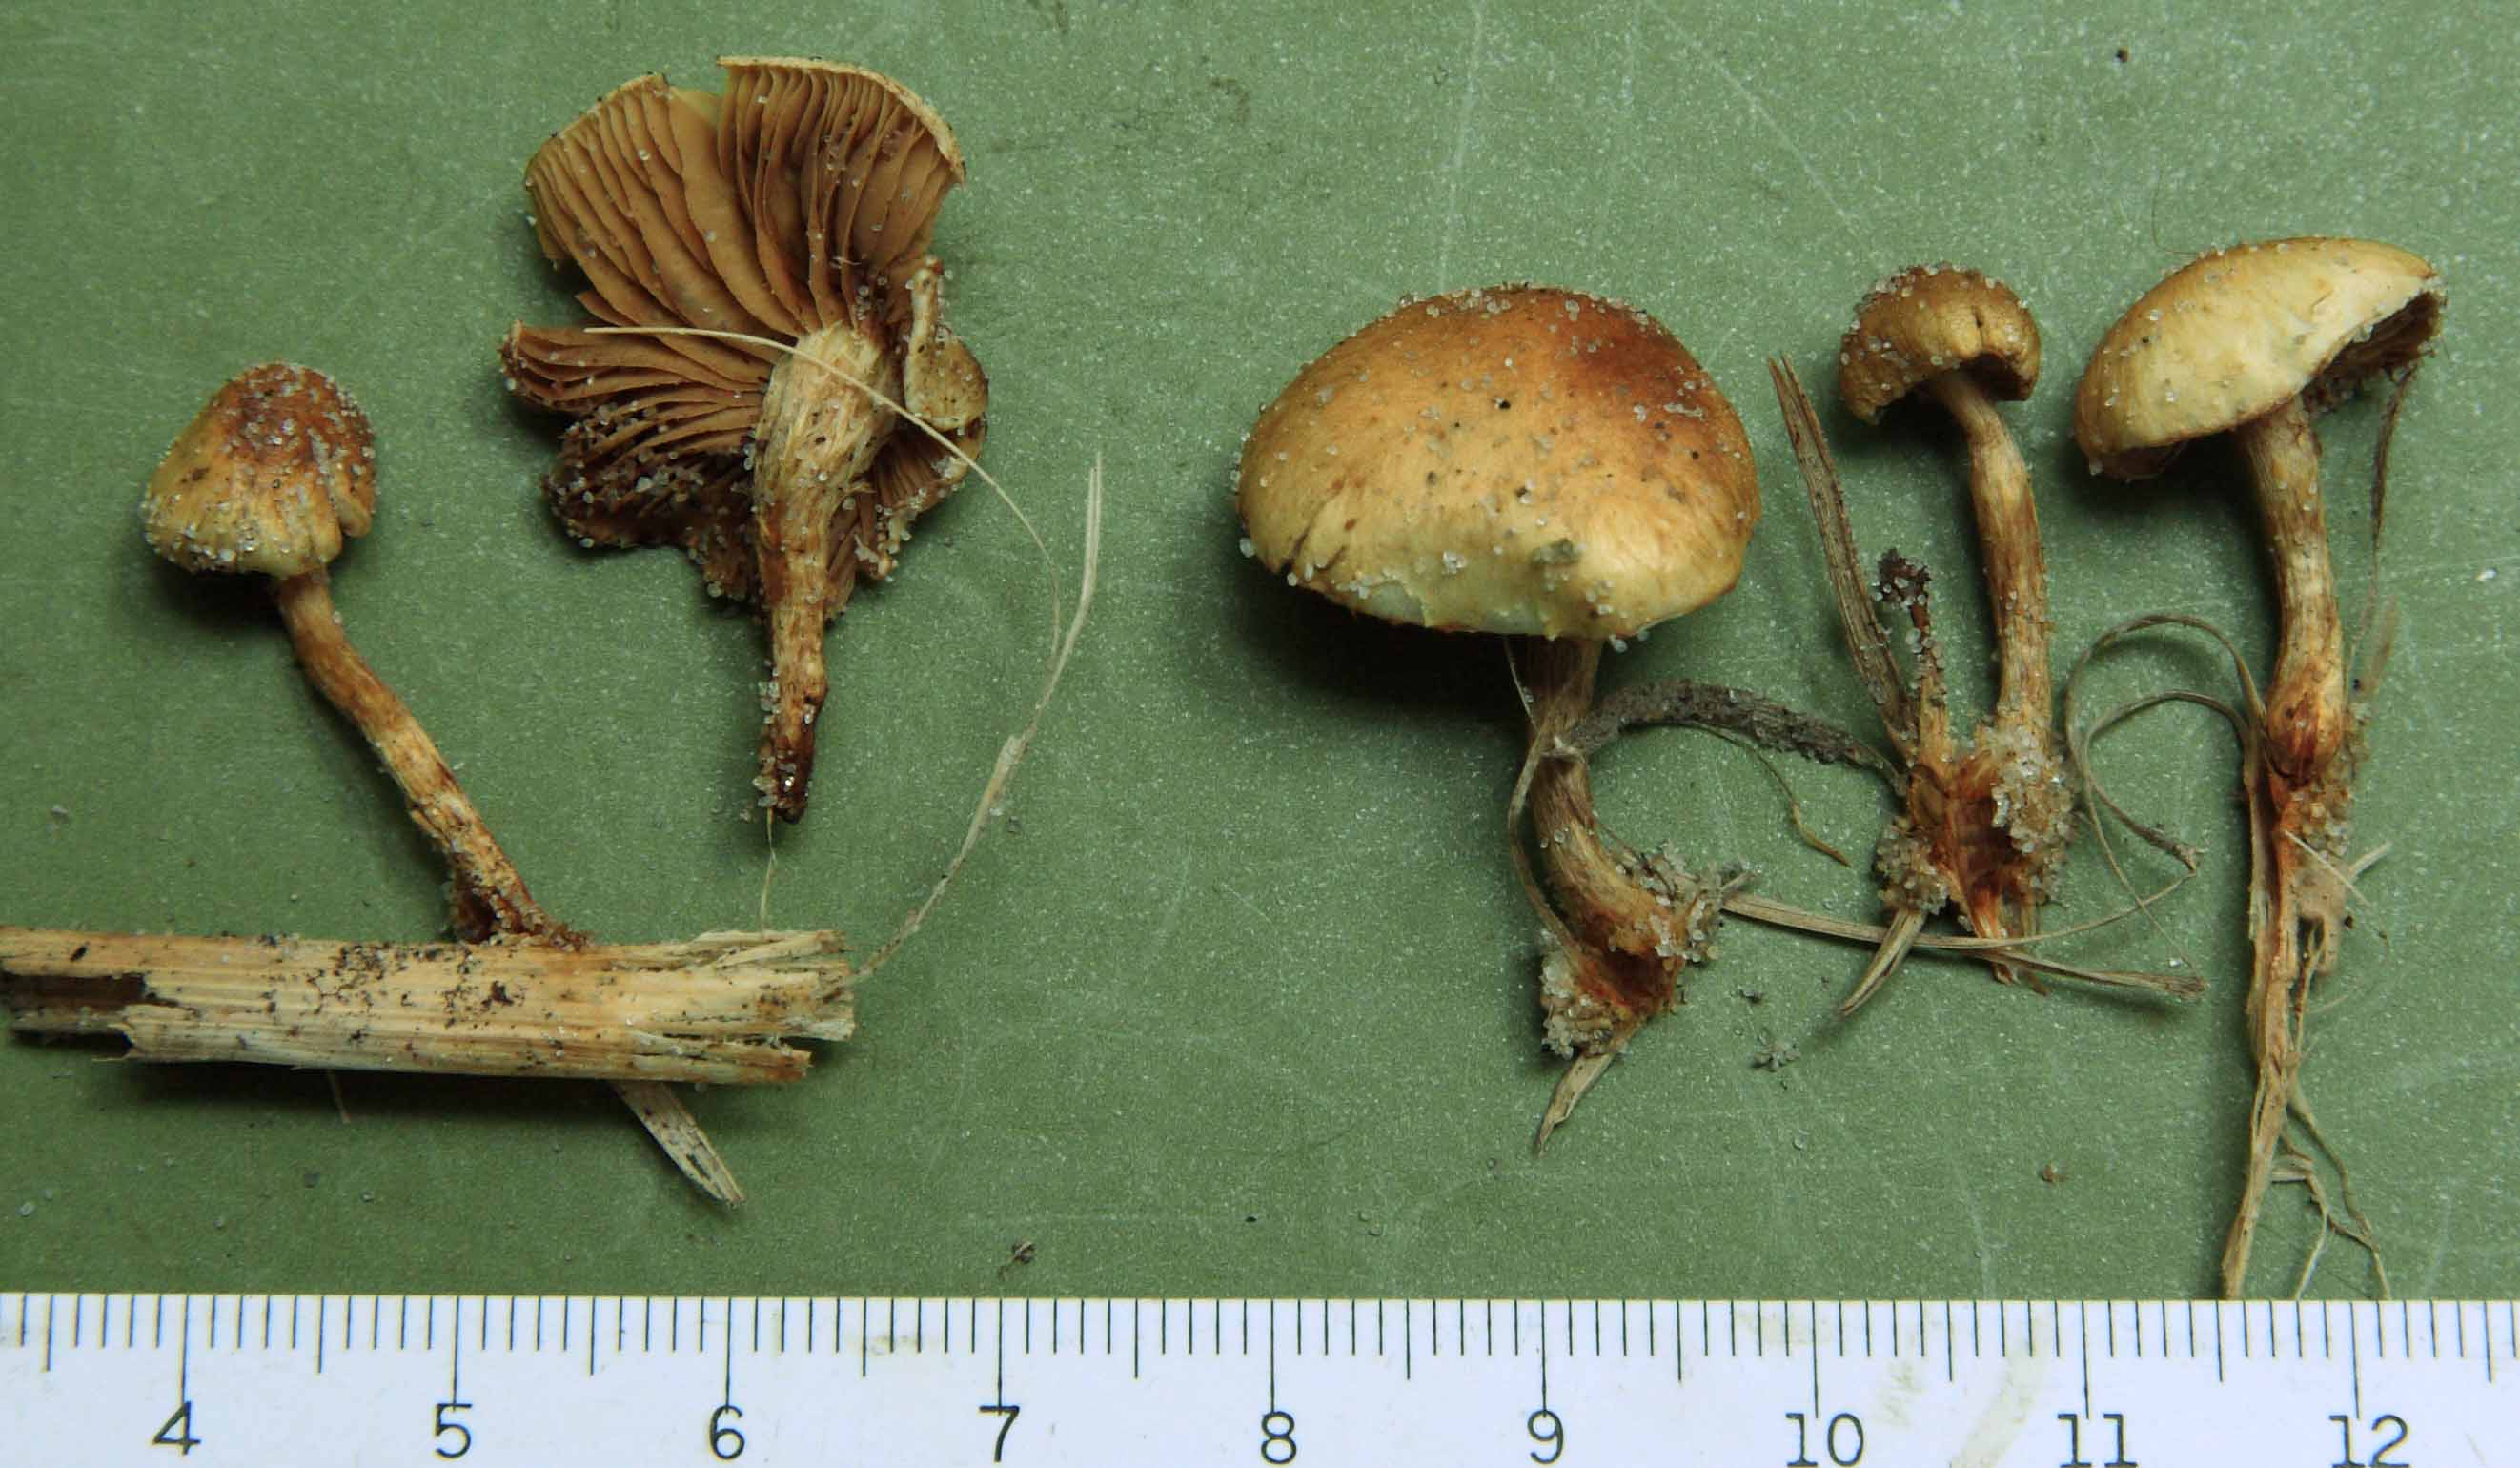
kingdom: Fungi
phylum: Basidiomycota
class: Agaricomycetes
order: Agaricales
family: Strophariaceae
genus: Pholiota
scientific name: Pholiota conissans
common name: pile-skælhat
